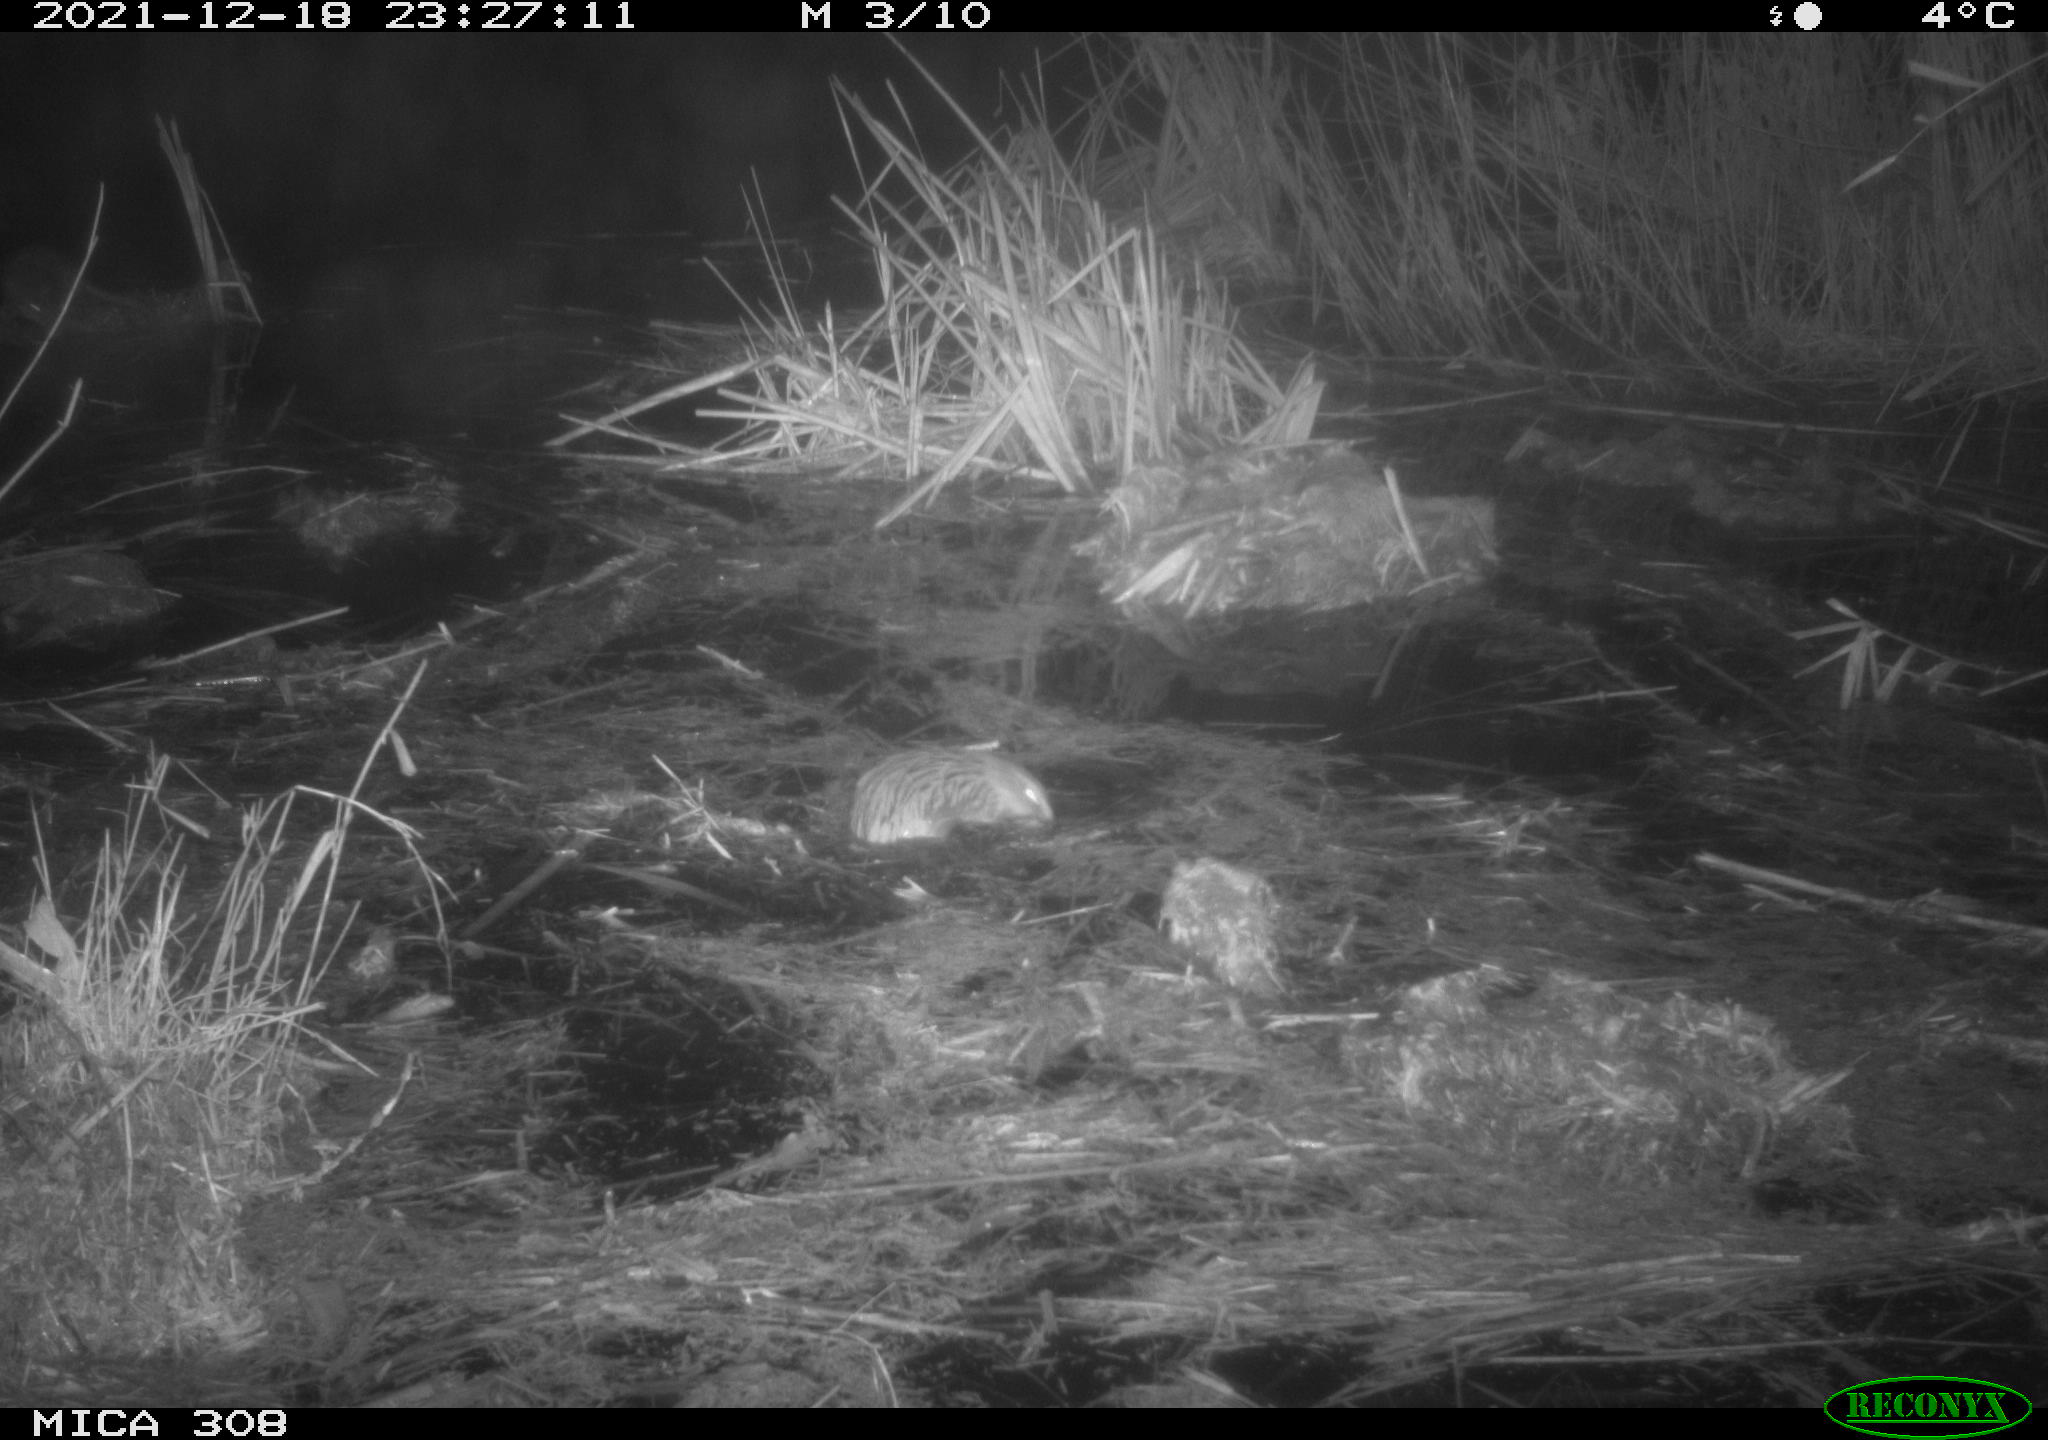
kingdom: Animalia
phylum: Chordata
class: Mammalia
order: Rodentia
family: Cricetidae
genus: Ondatra
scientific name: Ondatra zibethicus
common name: Muskrat
